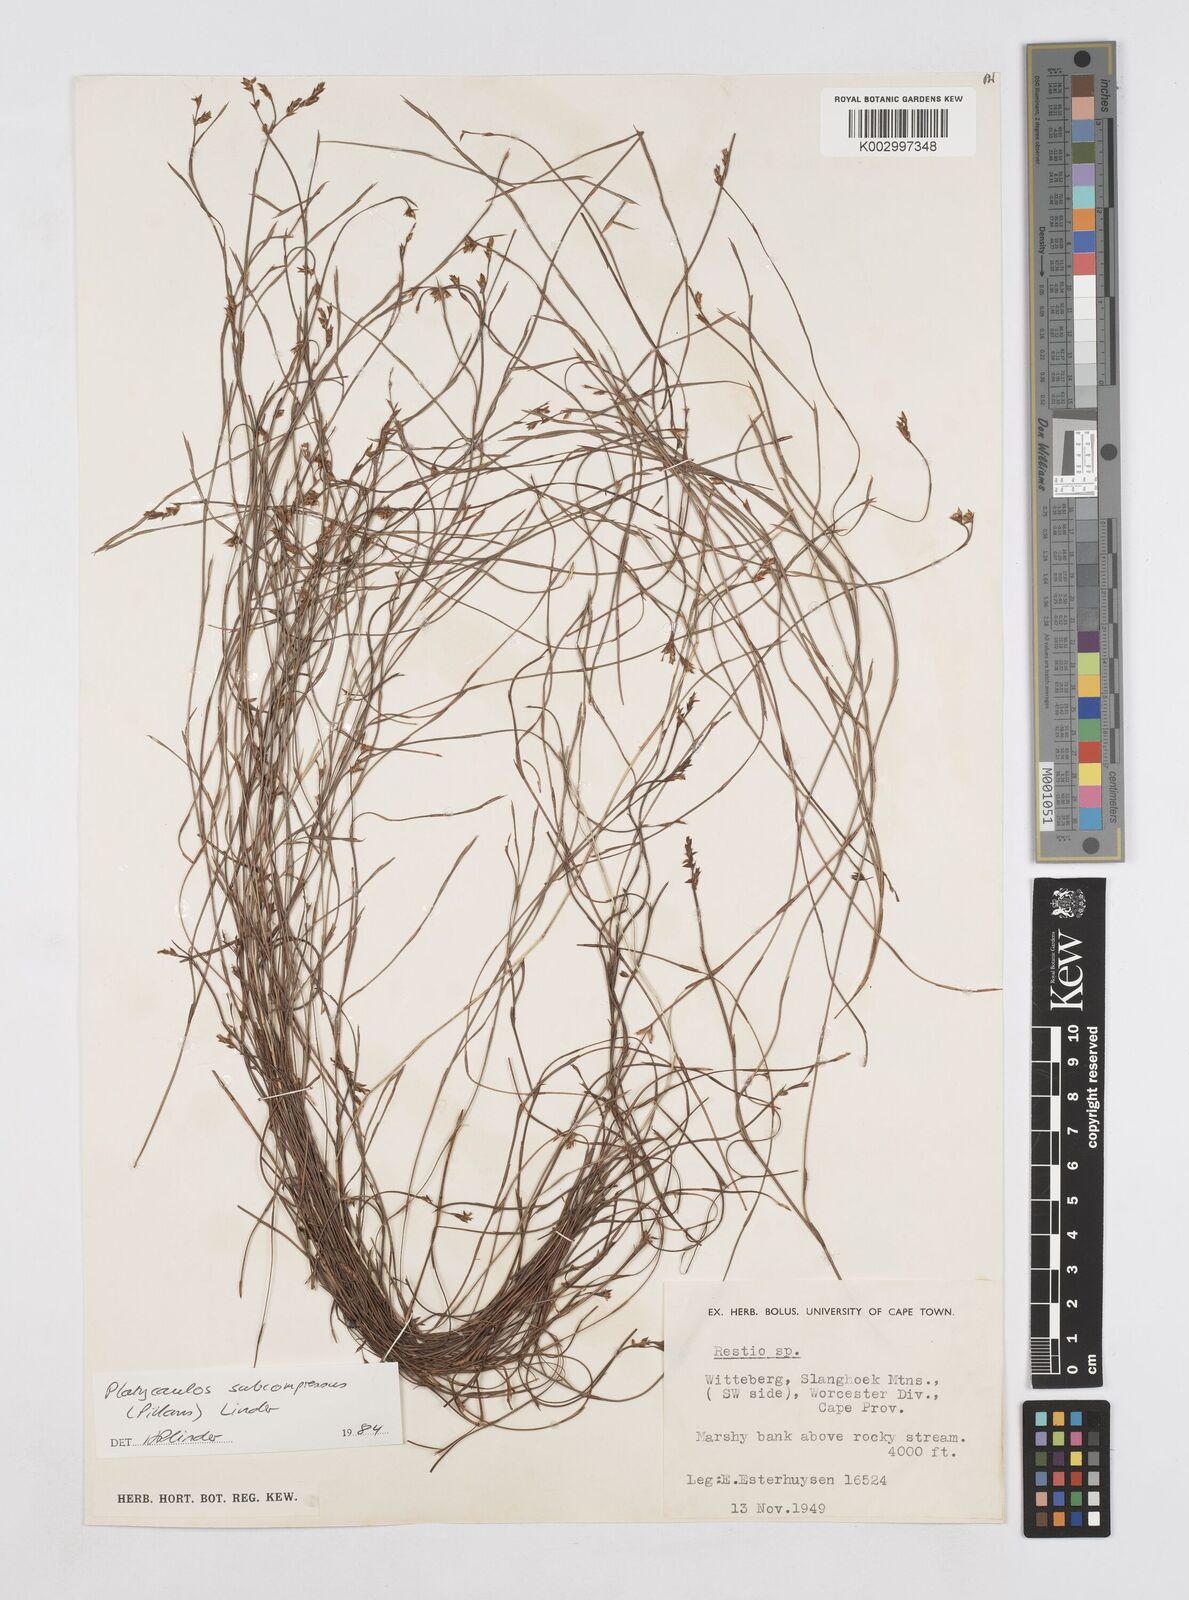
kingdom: Plantae
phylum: Tracheophyta
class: Liliopsida
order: Poales
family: Restionaceae
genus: Platycaulos
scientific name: Platycaulos subcompressus
